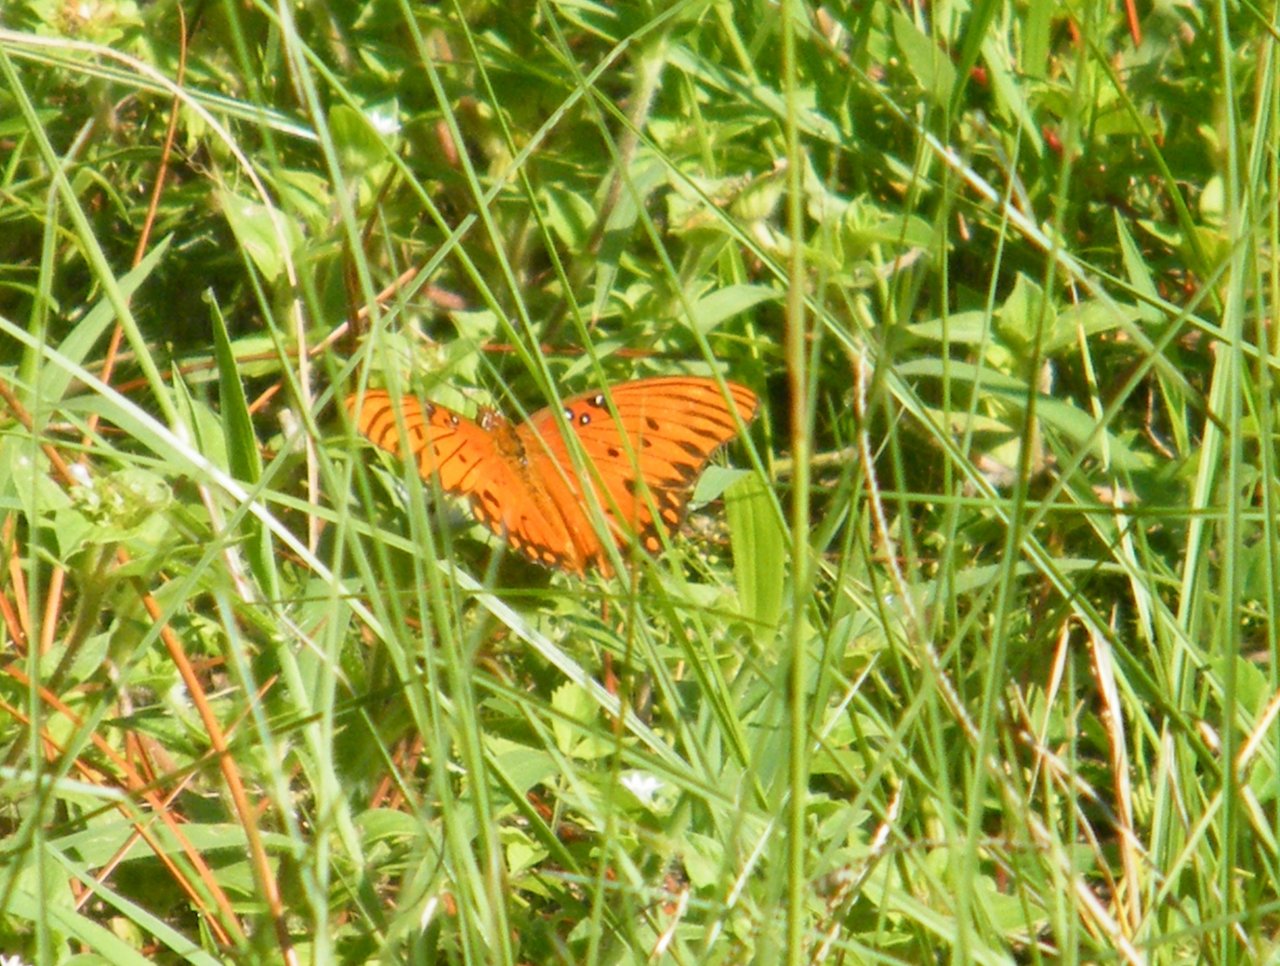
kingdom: Animalia
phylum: Arthropoda
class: Insecta
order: Lepidoptera
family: Nymphalidae
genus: Dione
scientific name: Dione vanillae
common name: Gulf Fritillary
